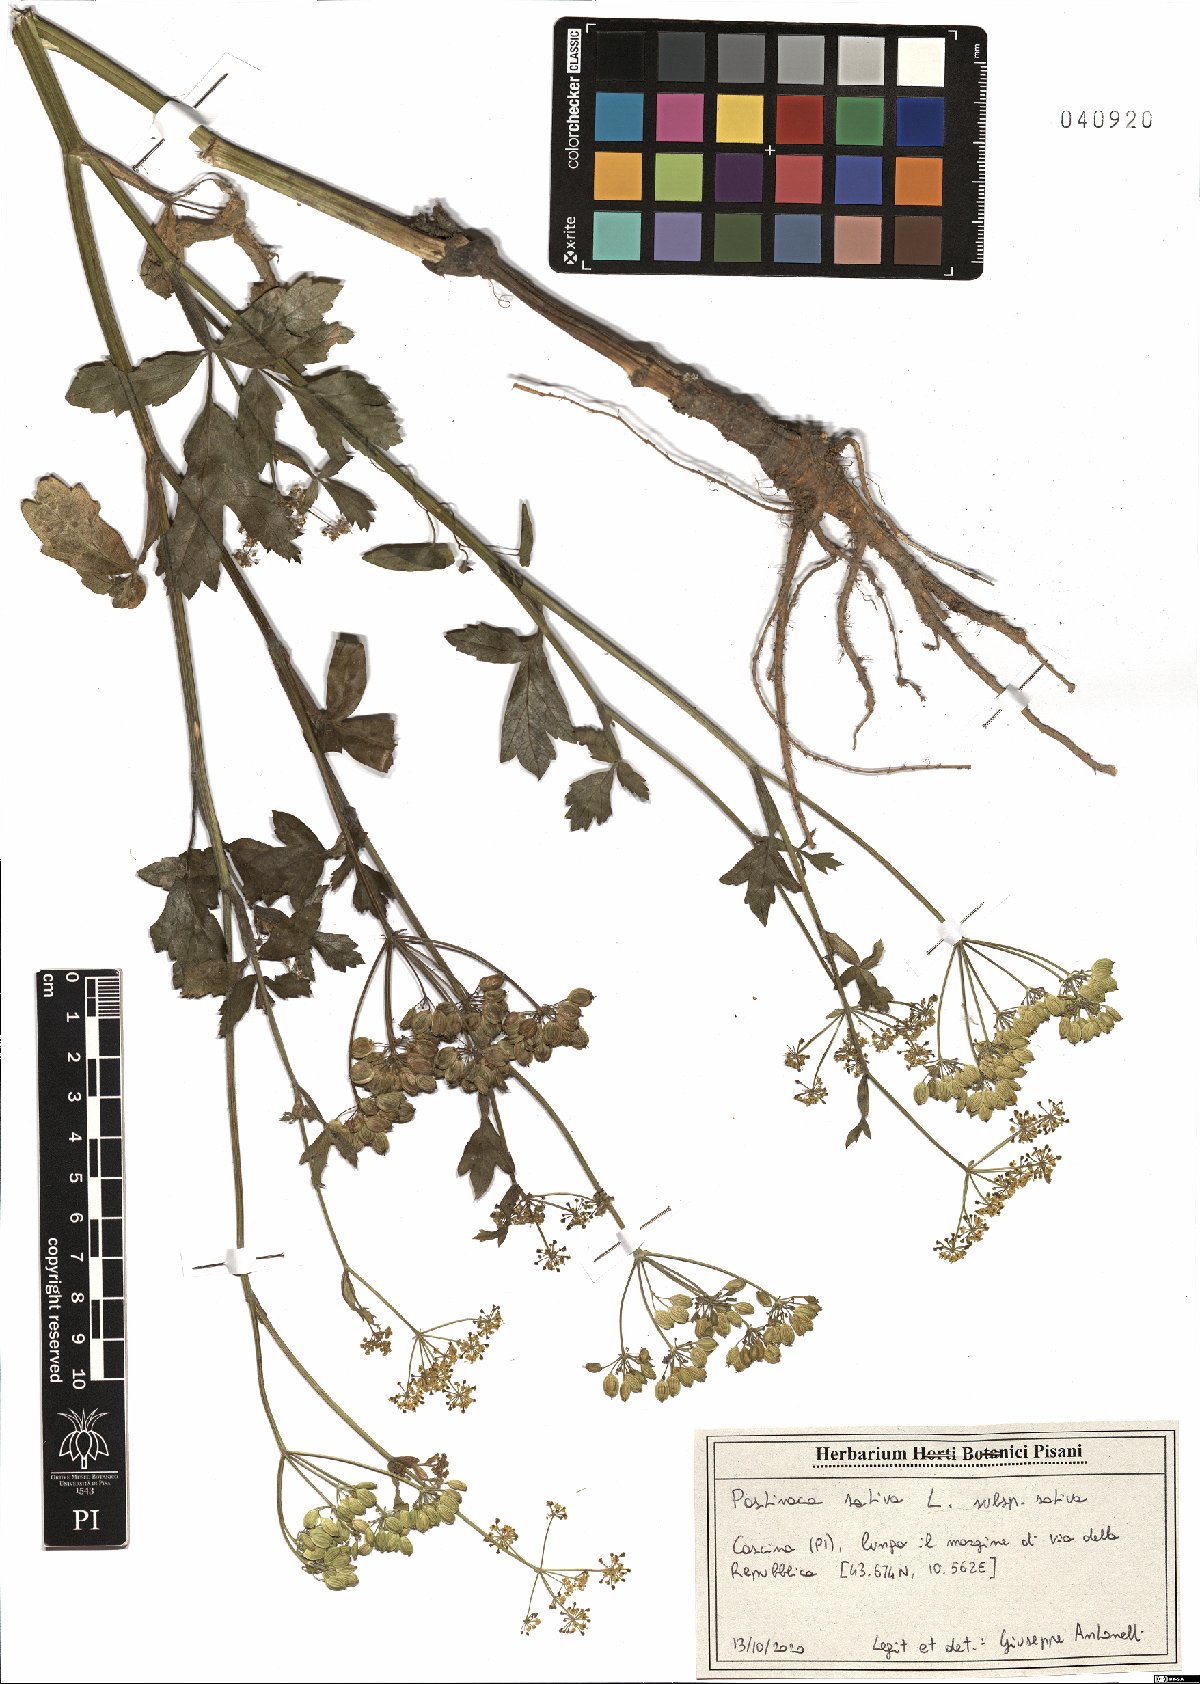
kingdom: Plantae
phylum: Tracheophyta
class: Magnoliopsida
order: Apiales
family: Apiaceae
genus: Pastinaca
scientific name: Pastinaca sativa
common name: Wild parsnip
